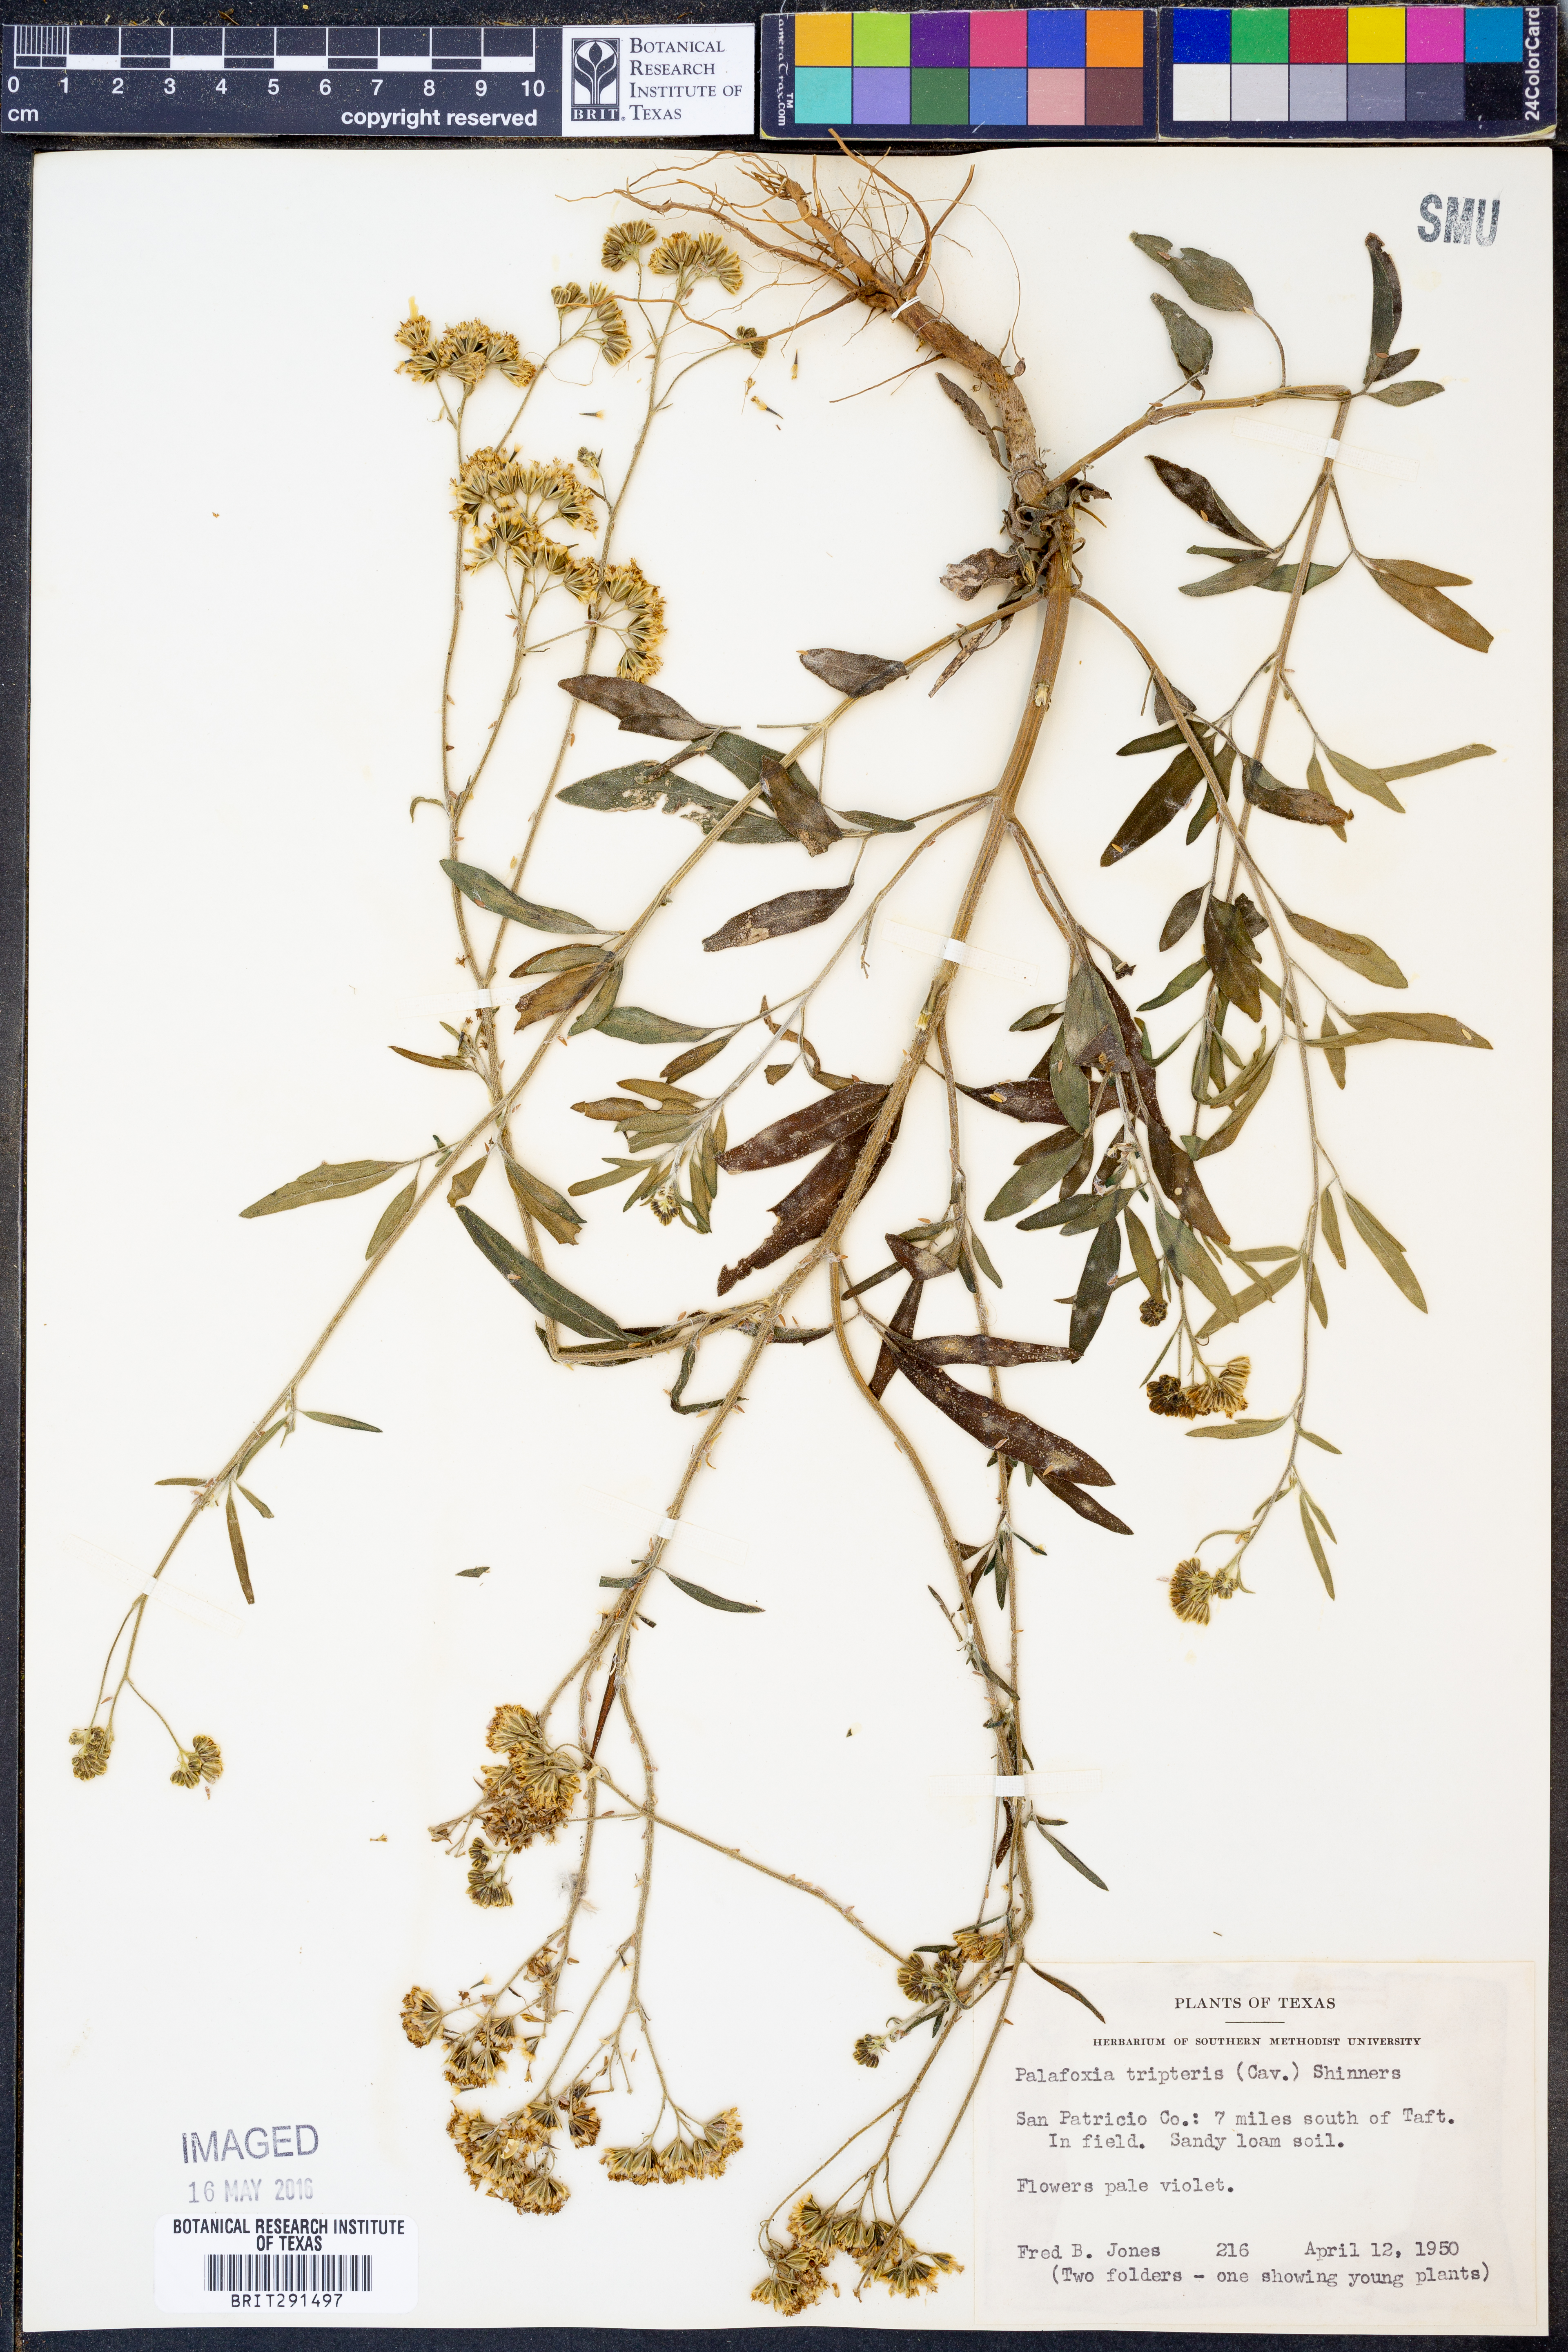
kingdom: Plantae
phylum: Tracheophyta
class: Magnoliopsida
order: Asterales
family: Asteraceae
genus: Florestina
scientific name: Florestina tripteris
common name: Sticky florestina
